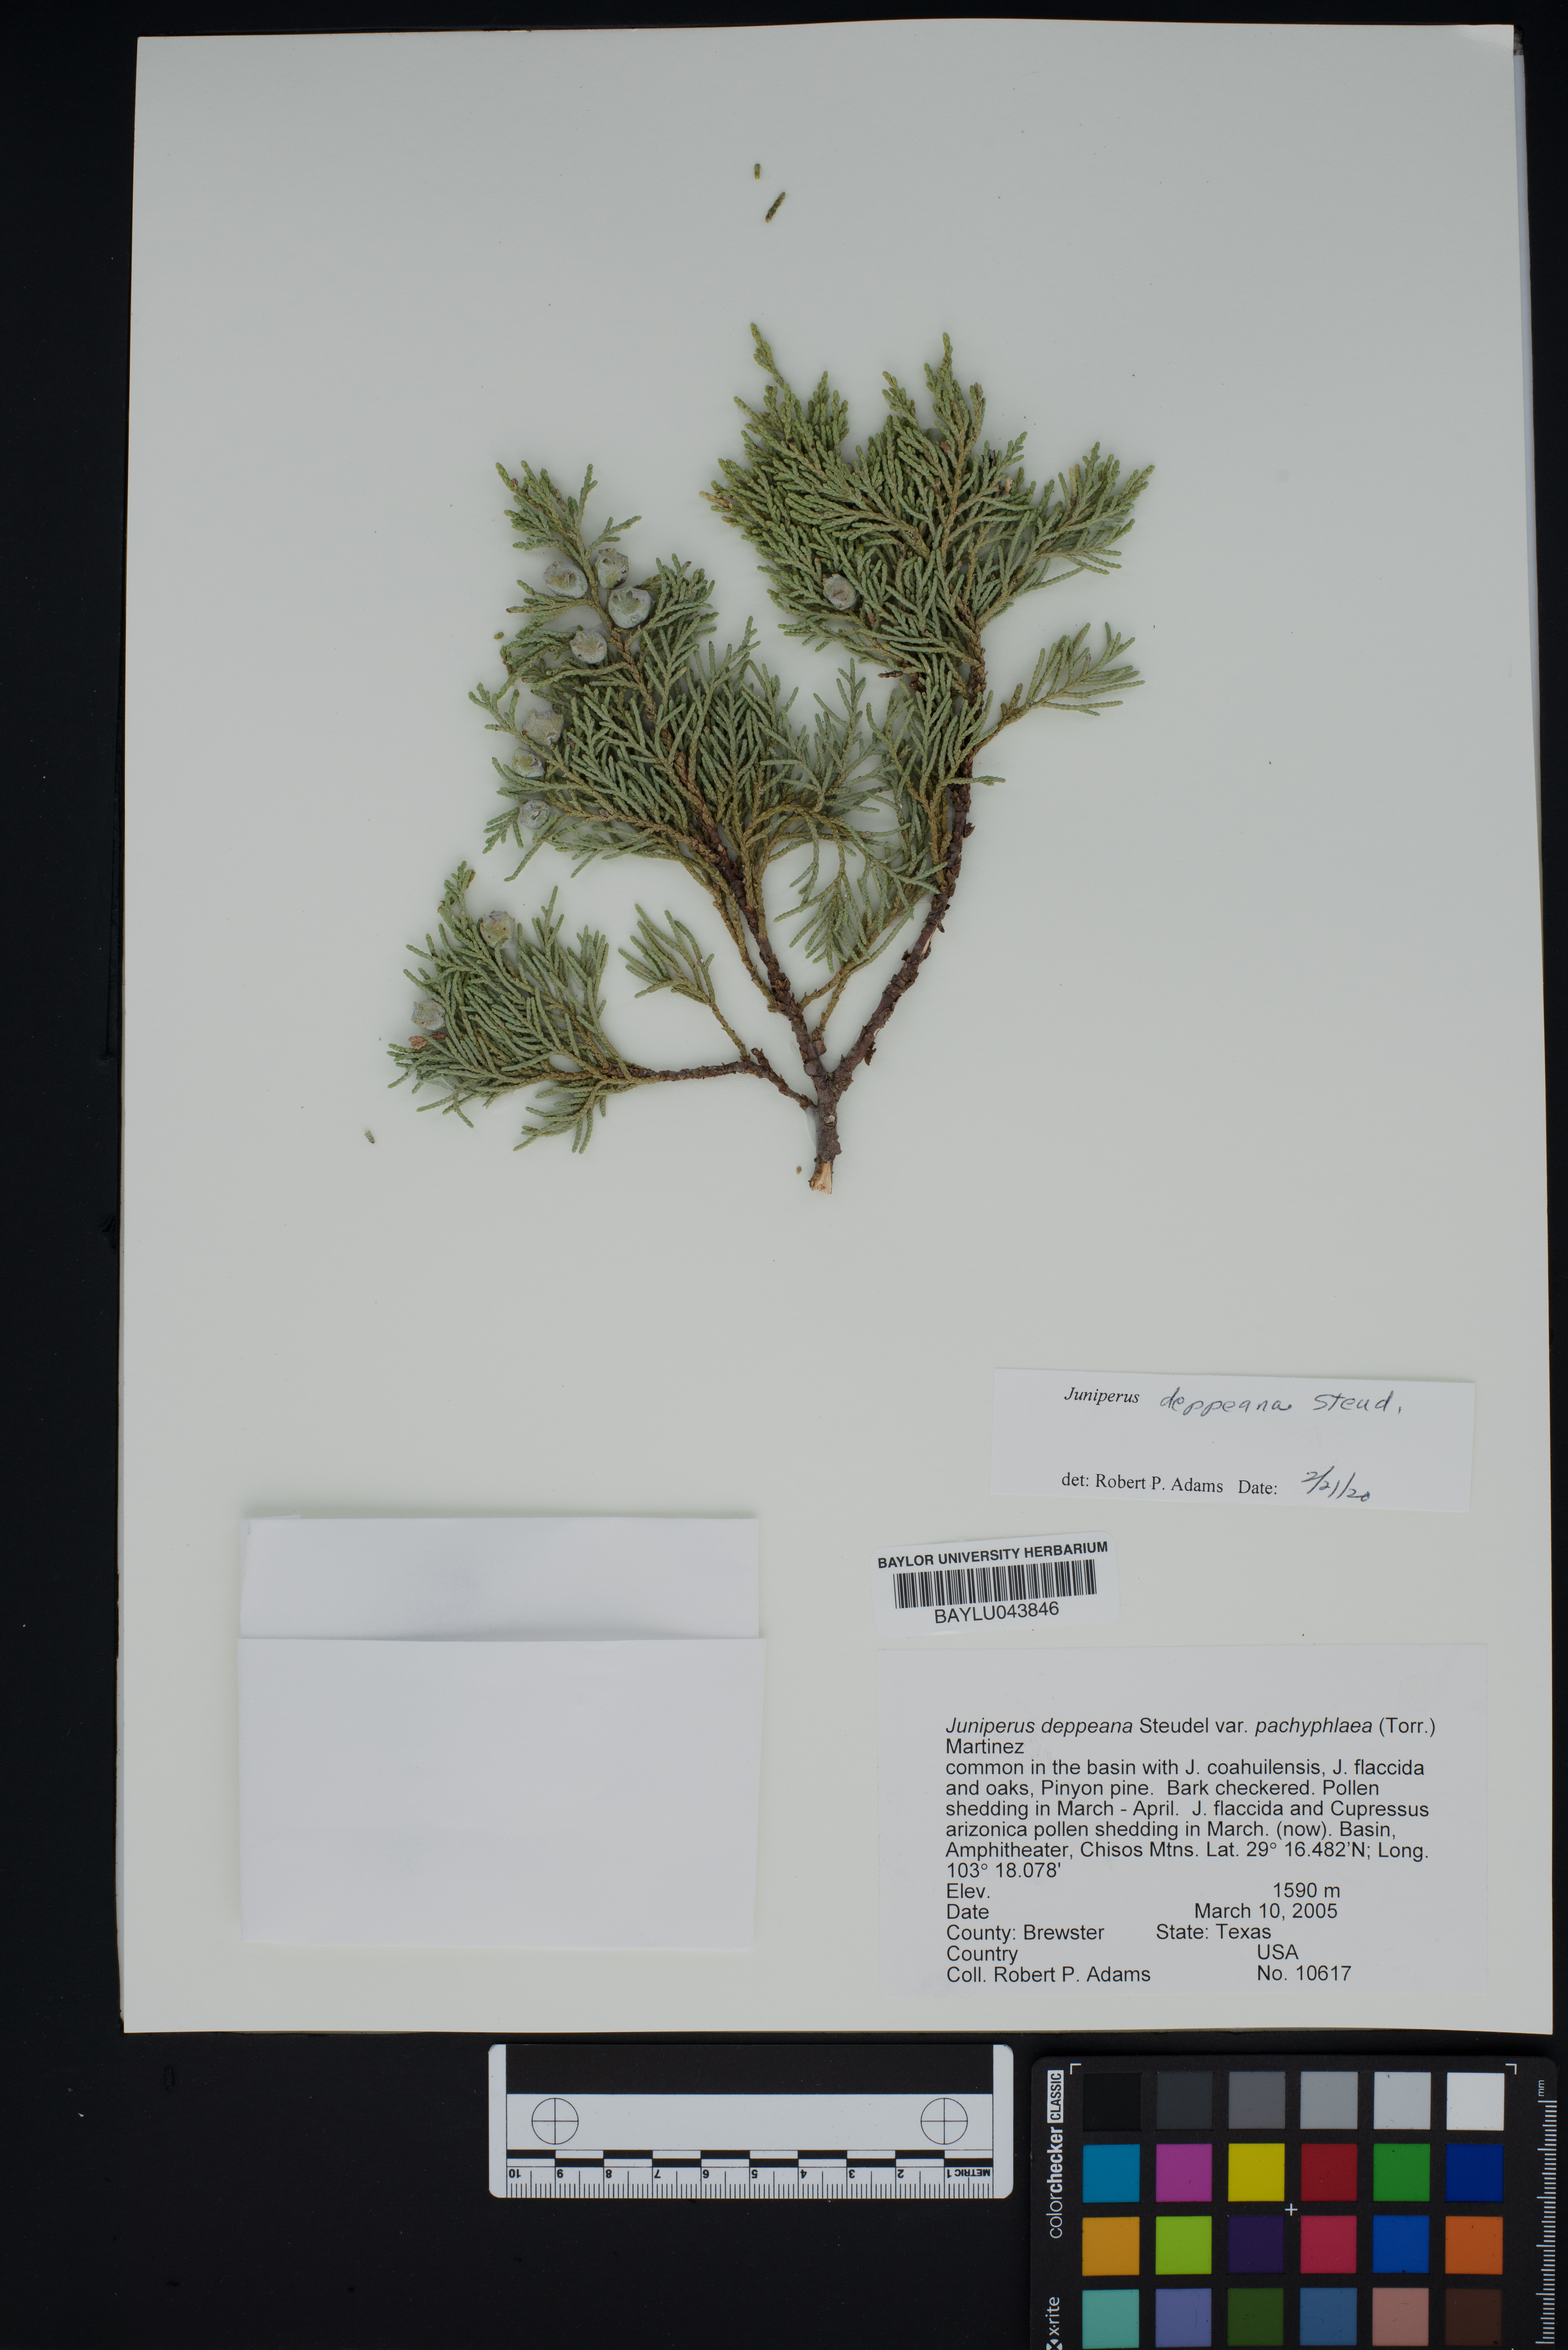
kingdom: Plantae
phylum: Tracheophyta
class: Pinopsida
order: Pinales
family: Cupressaceae
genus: Juniperus
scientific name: Juniperus deppeana
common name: Alligator juniper
